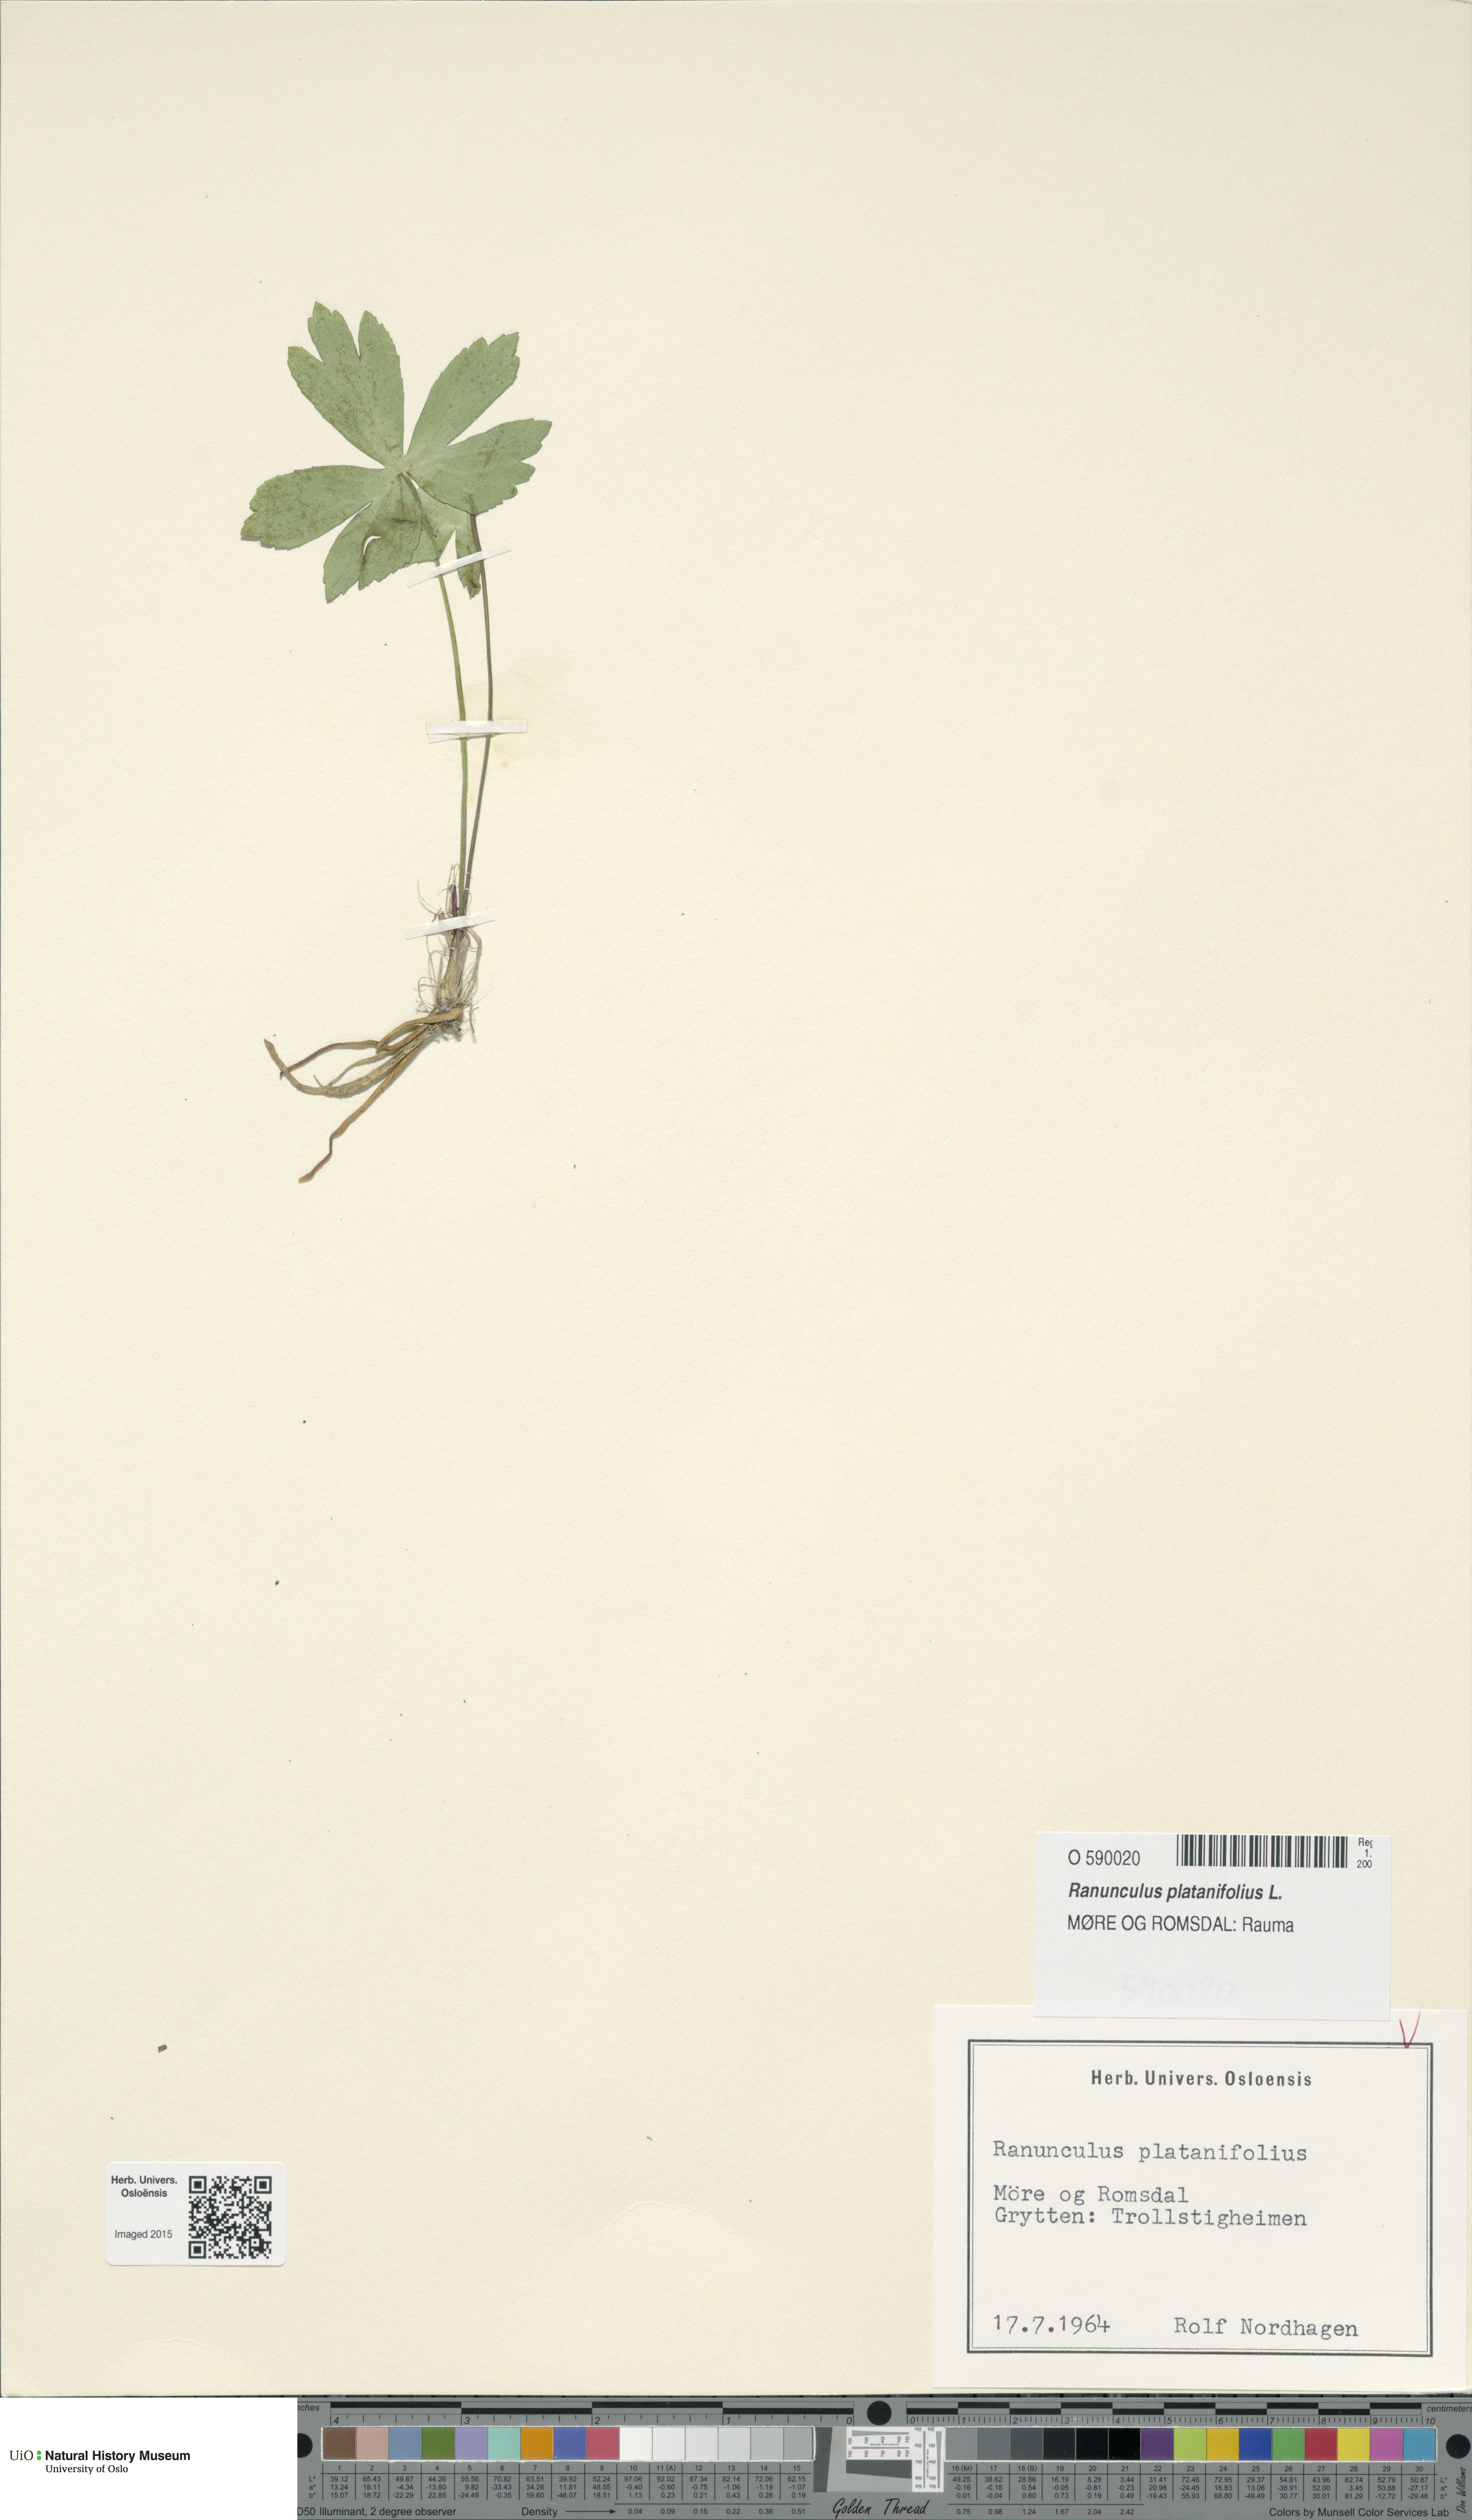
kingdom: Plantae
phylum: Tracheophyta
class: Magnoliopsida
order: Ranunculales
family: Ranunculaceae
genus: Ranunculus
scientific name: Ranunculus platanifolius
